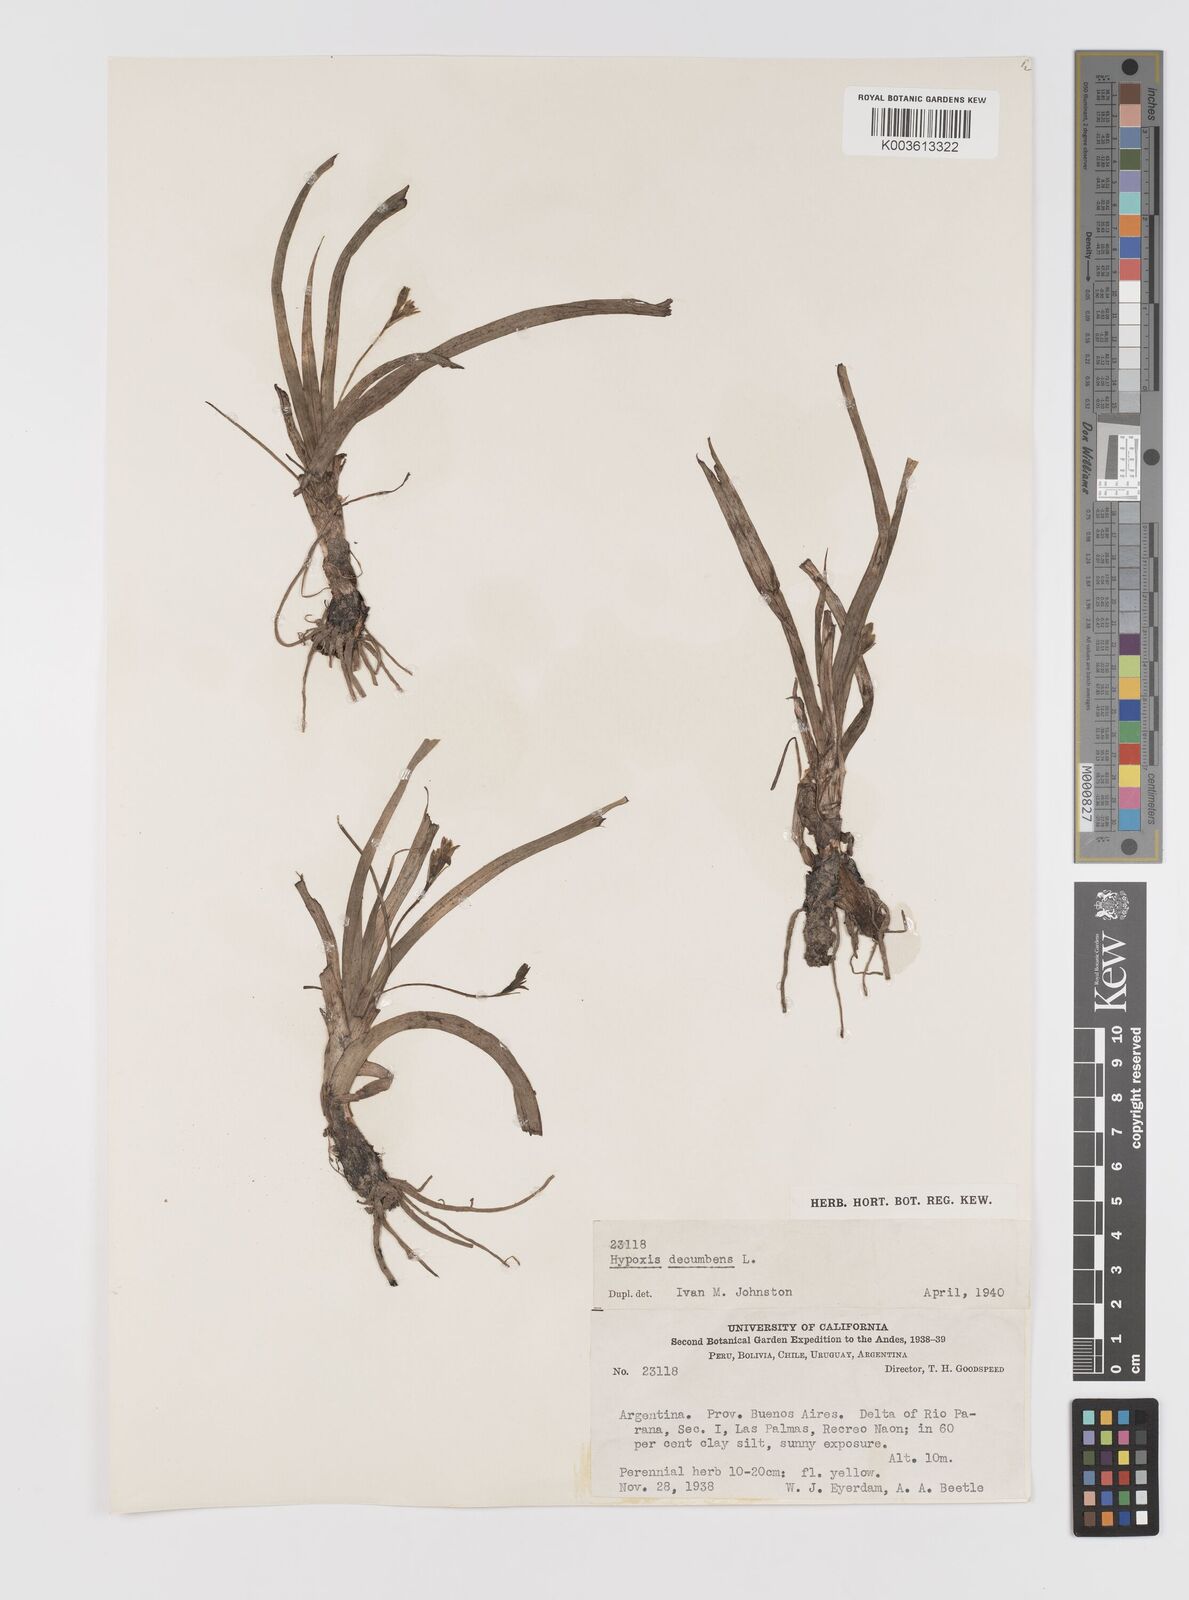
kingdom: Plantae
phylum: Tracheophyta
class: Liliopsida
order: Asparagales
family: Hypoxidaceae
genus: Hypoxis
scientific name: Hypoxis decumbens
